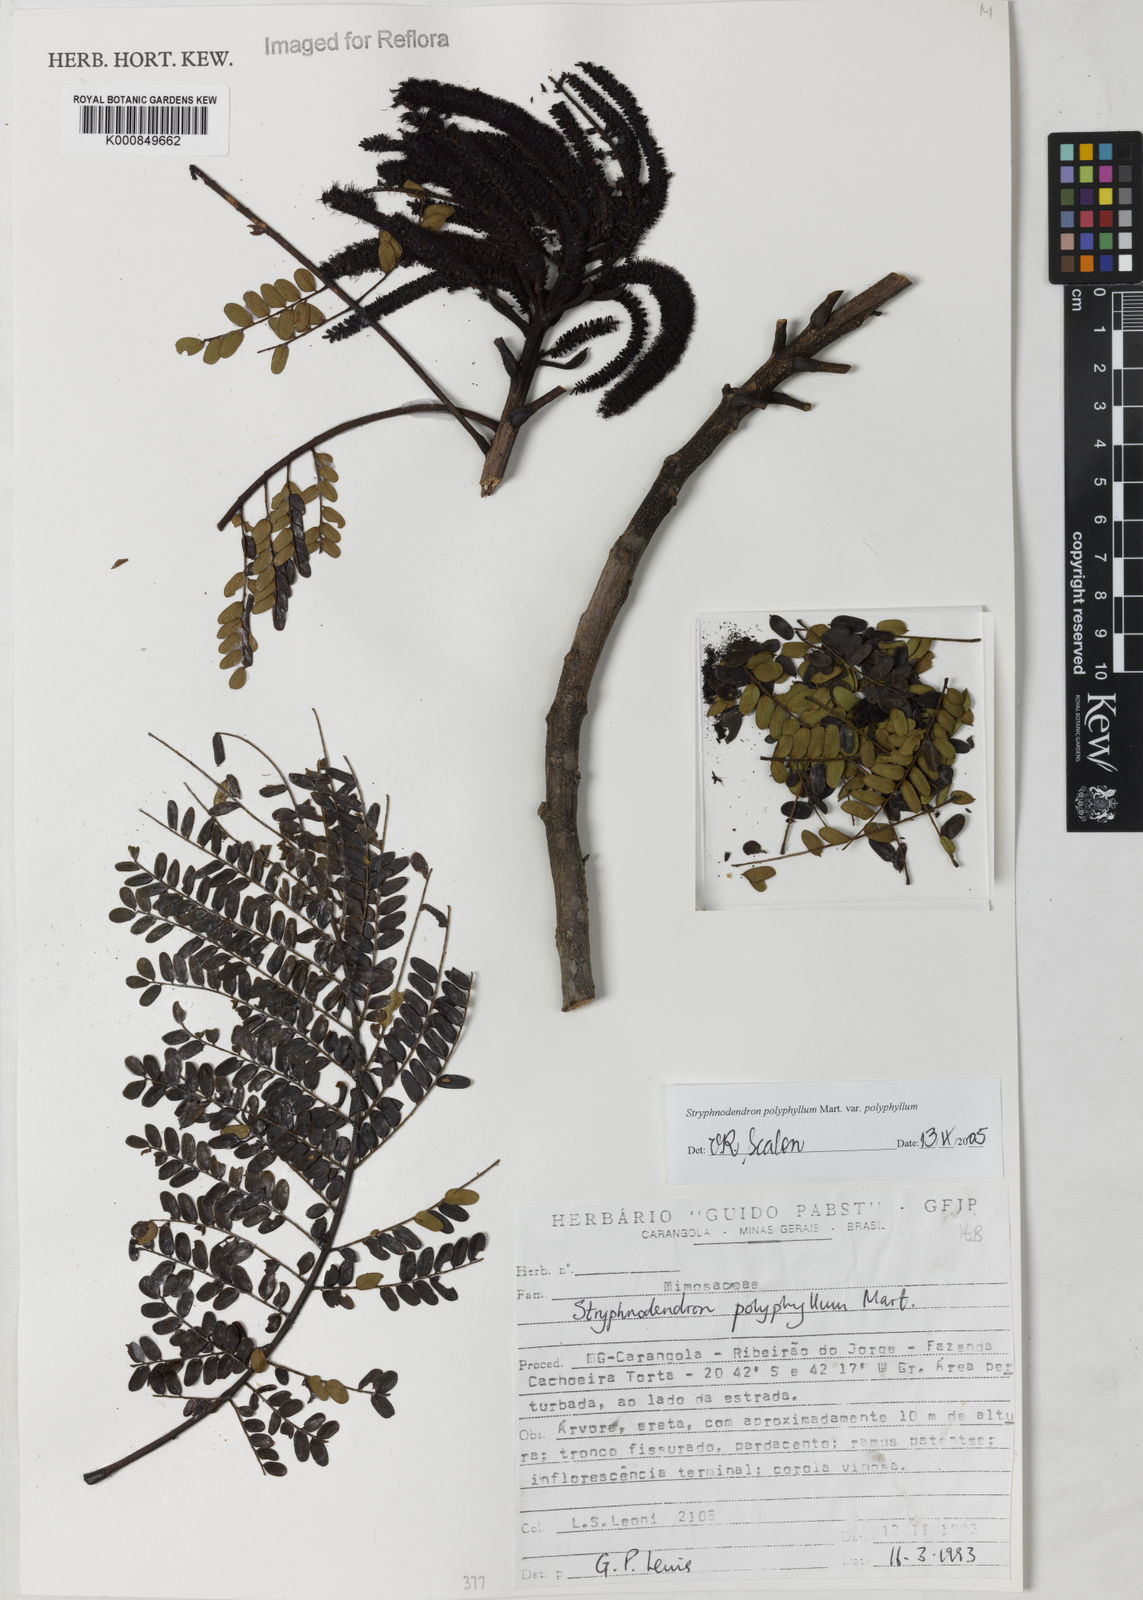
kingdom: Plantae
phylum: Tracheophyta
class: Magnoliopsida
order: Fabales
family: Fabaceae
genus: Stryphnodendron
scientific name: Stryphnodendron polyphyllum
